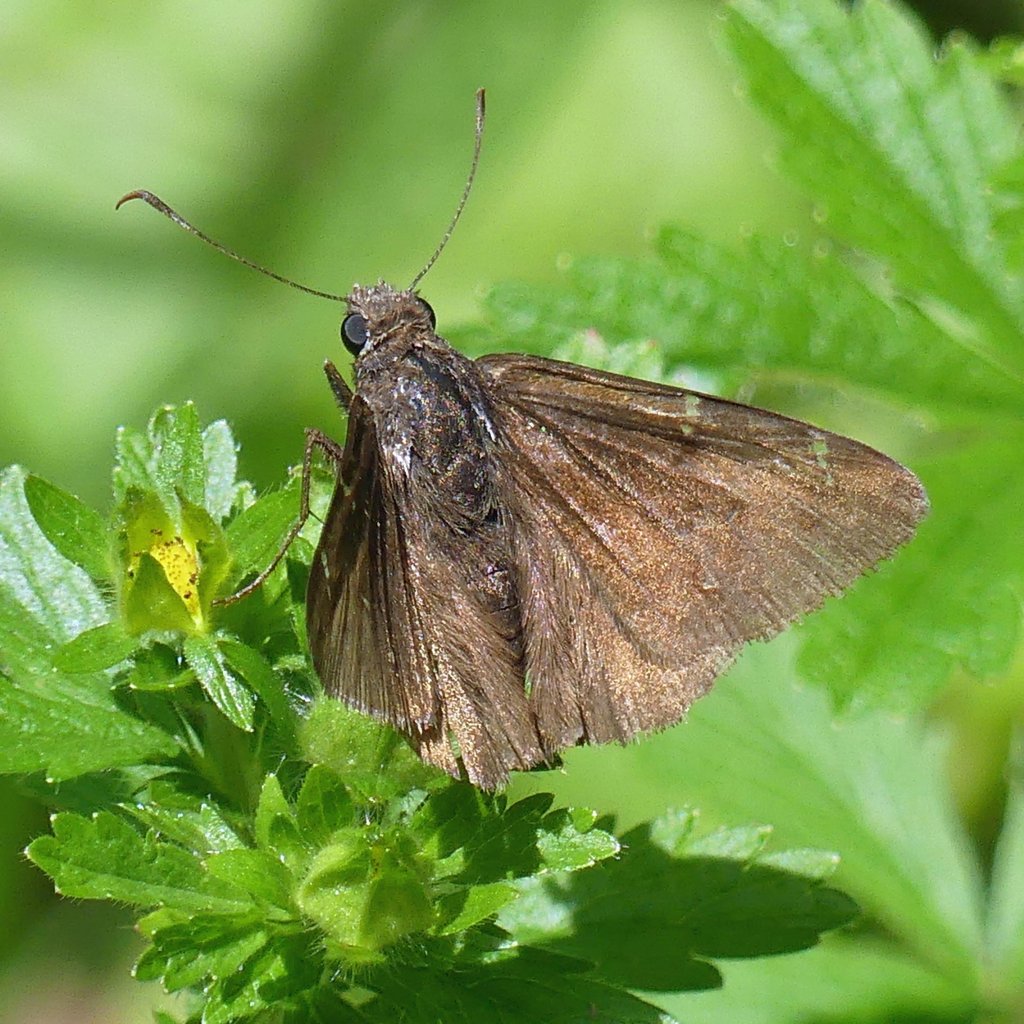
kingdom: Animalia
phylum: Arthropoda
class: Insecta
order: Lepidoptera
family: Hesperiidae
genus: Autochton
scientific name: Autochton
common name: Northern Cloudywing
